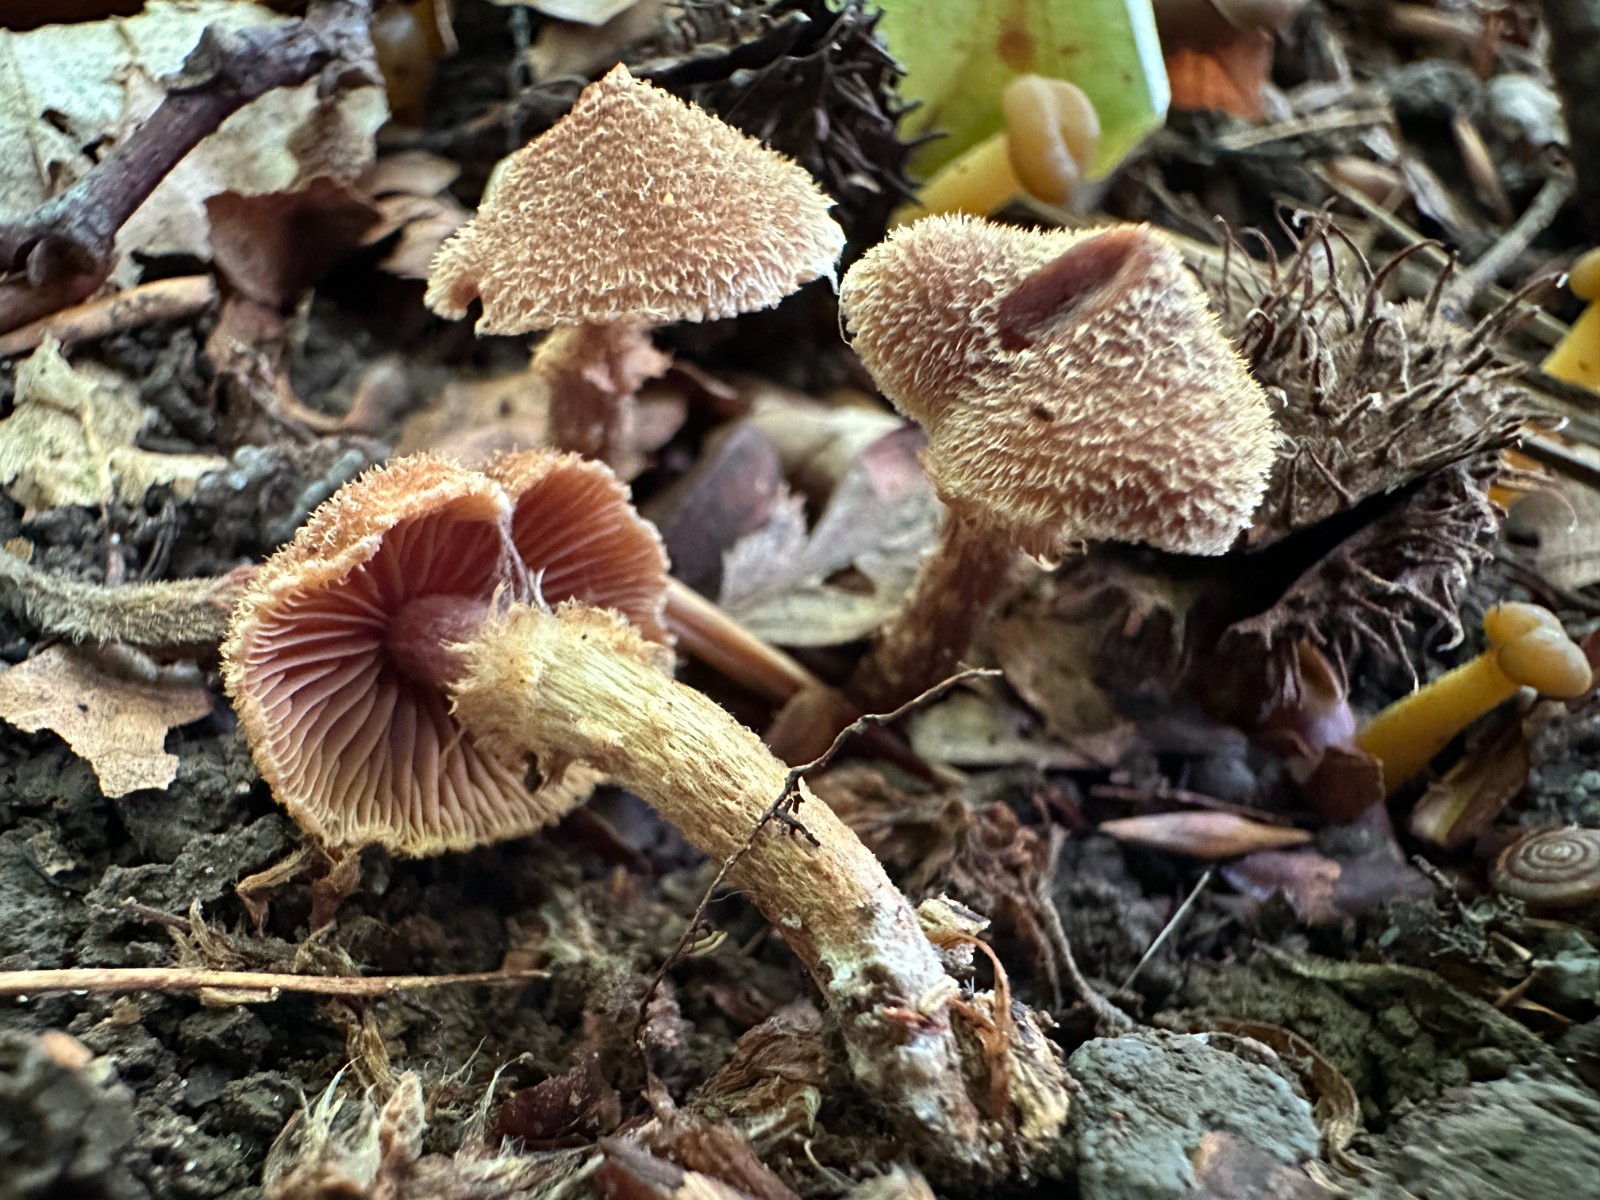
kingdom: Fungi
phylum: Basidiomycota
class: Agaricomycetes
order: Agaricales
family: Cortinariaceae
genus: Cortinarius
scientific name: Cortinarius quercoconicus
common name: agernskål-slørhat
